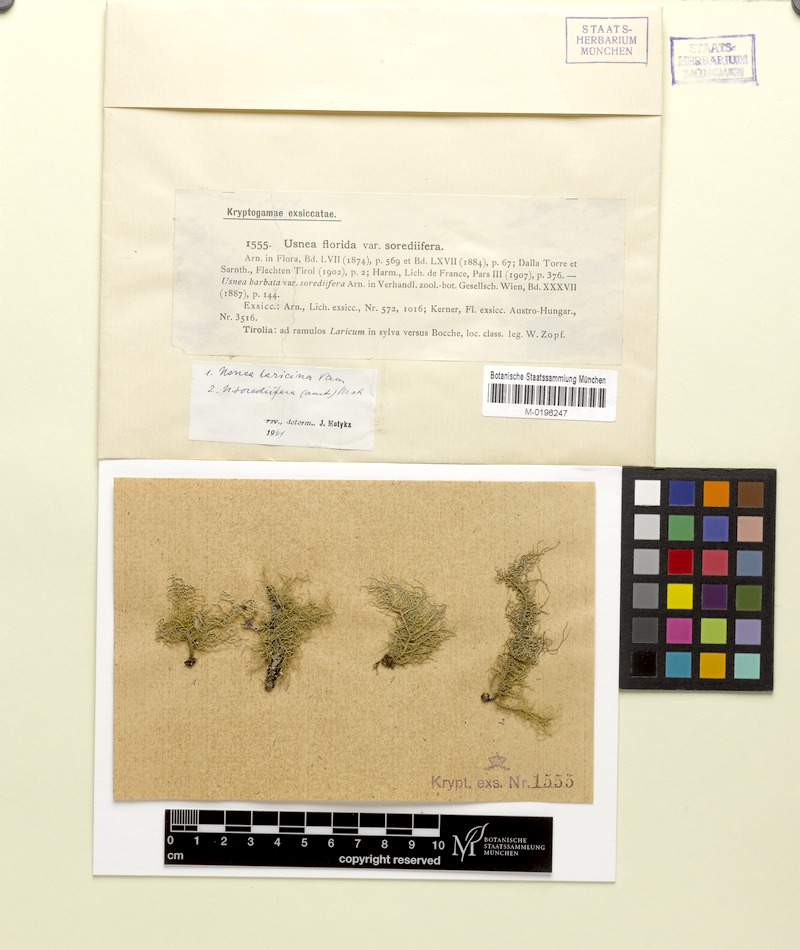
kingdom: Fungi
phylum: Ascomycota
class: Lecanoromycetes
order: Lecanorales
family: Parmeliaceae
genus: Usnea
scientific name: Usnea glabrata
